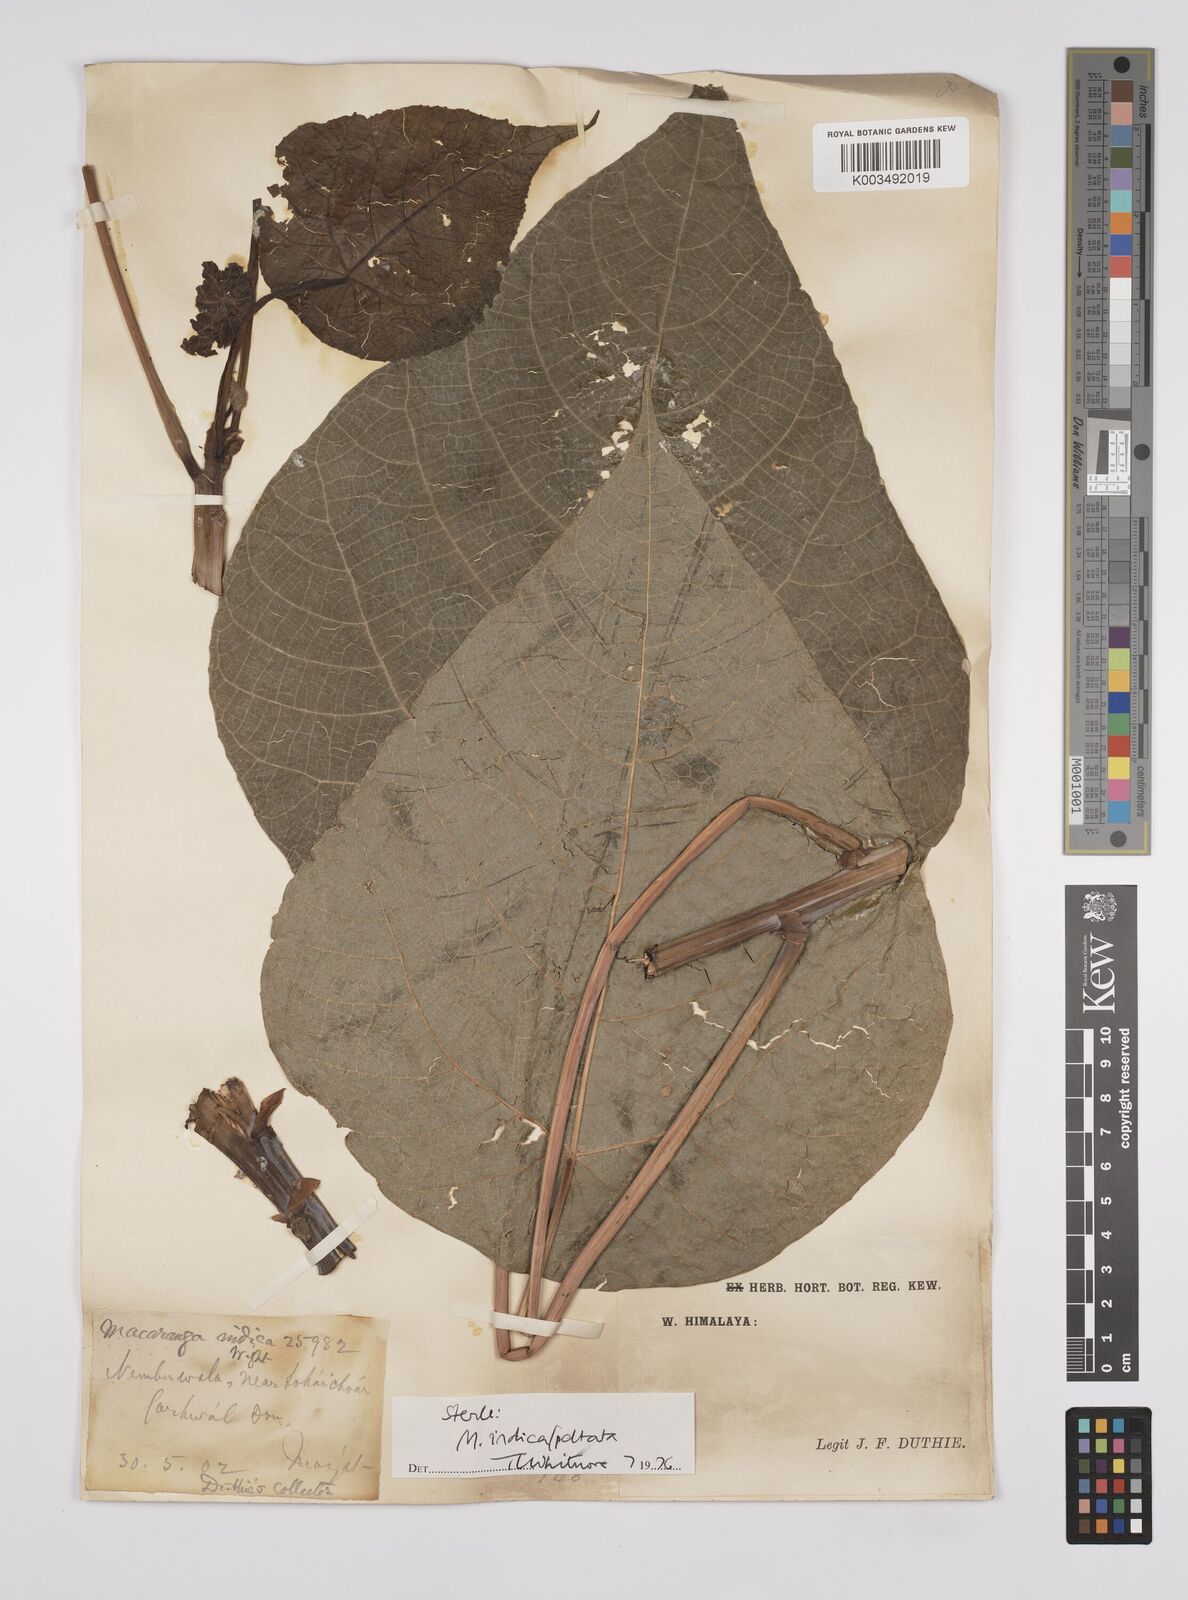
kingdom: Plantae
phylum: Tracheophyta
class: Magnoliopsida
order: Malpighiales
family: Euphorbiaceae
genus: Macaranga
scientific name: Macaranga indica
